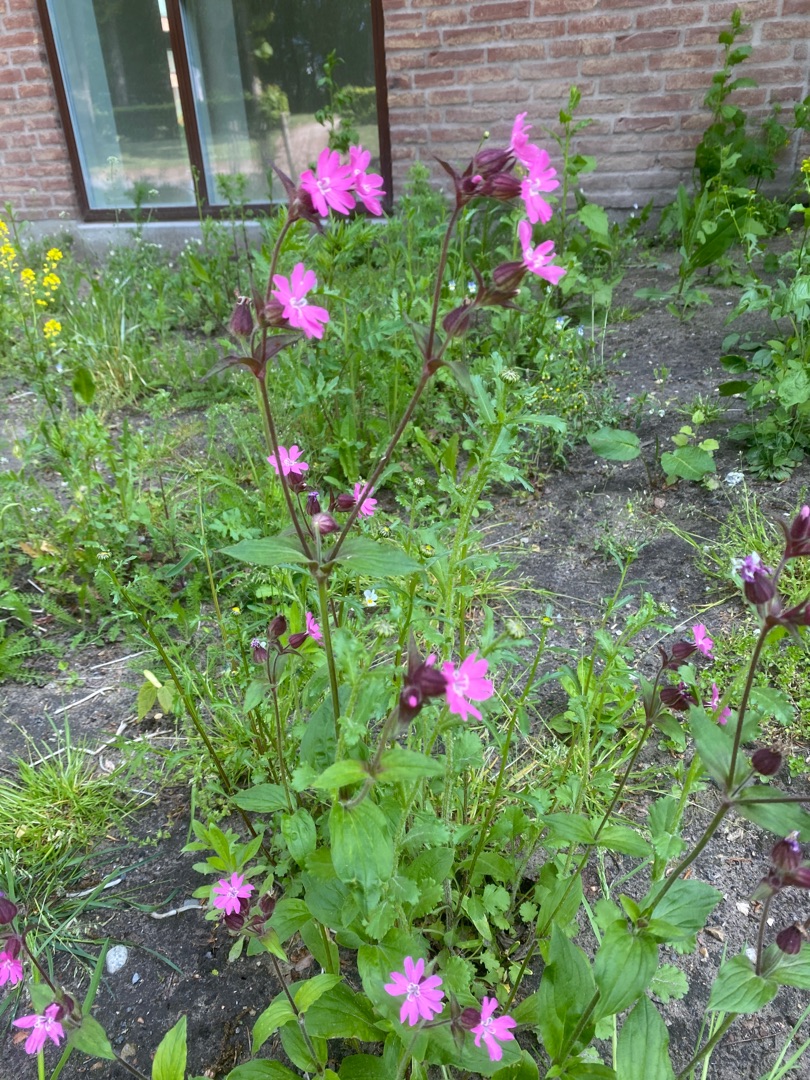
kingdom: Plantae
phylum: Tracheophyta
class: Magnoliopsida
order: Caryophyllales
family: Caryophyllaceae
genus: Silene
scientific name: Silene dioica
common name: Dagpragtstjerne
